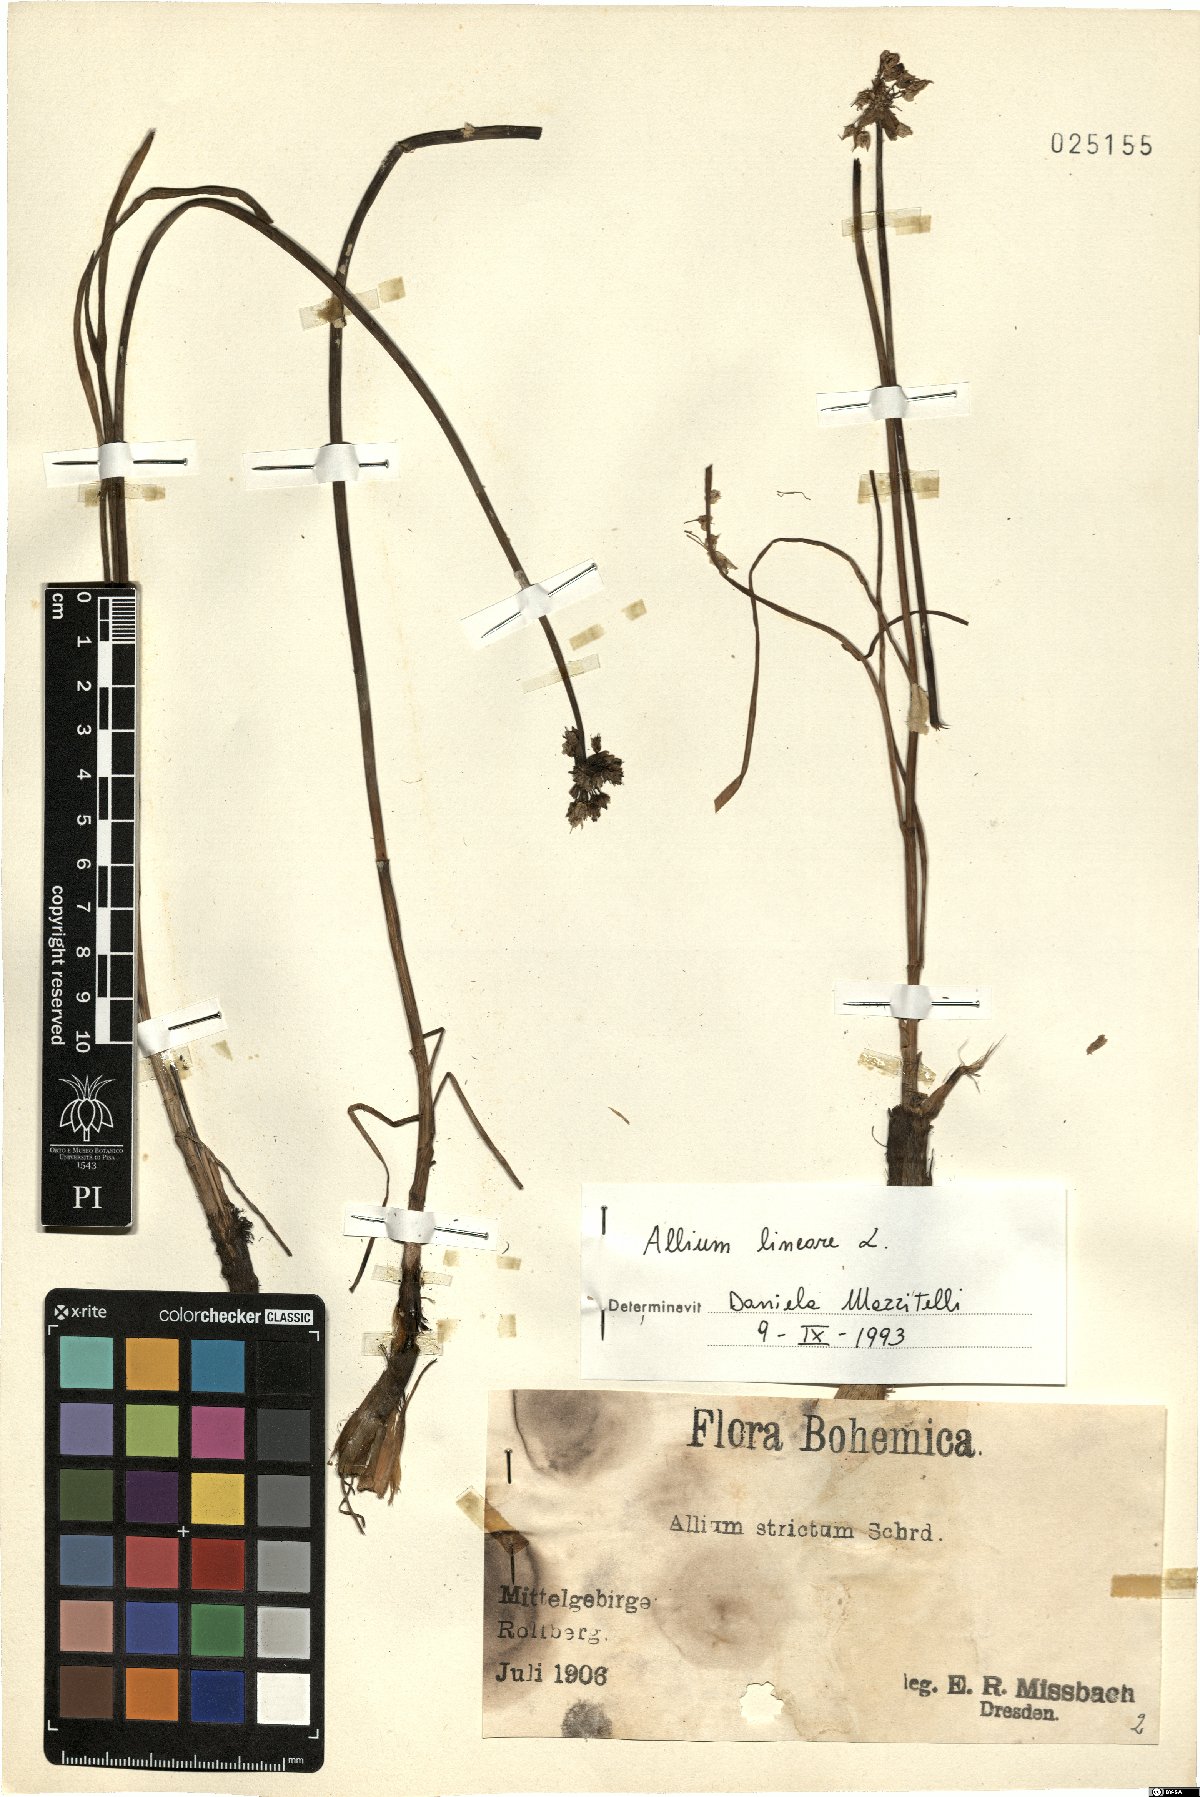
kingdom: Plantae
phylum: Tracheophyta
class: Liliopsida
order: Asparagales
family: Amaryllidaceae
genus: Allium
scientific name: Allium lineare
